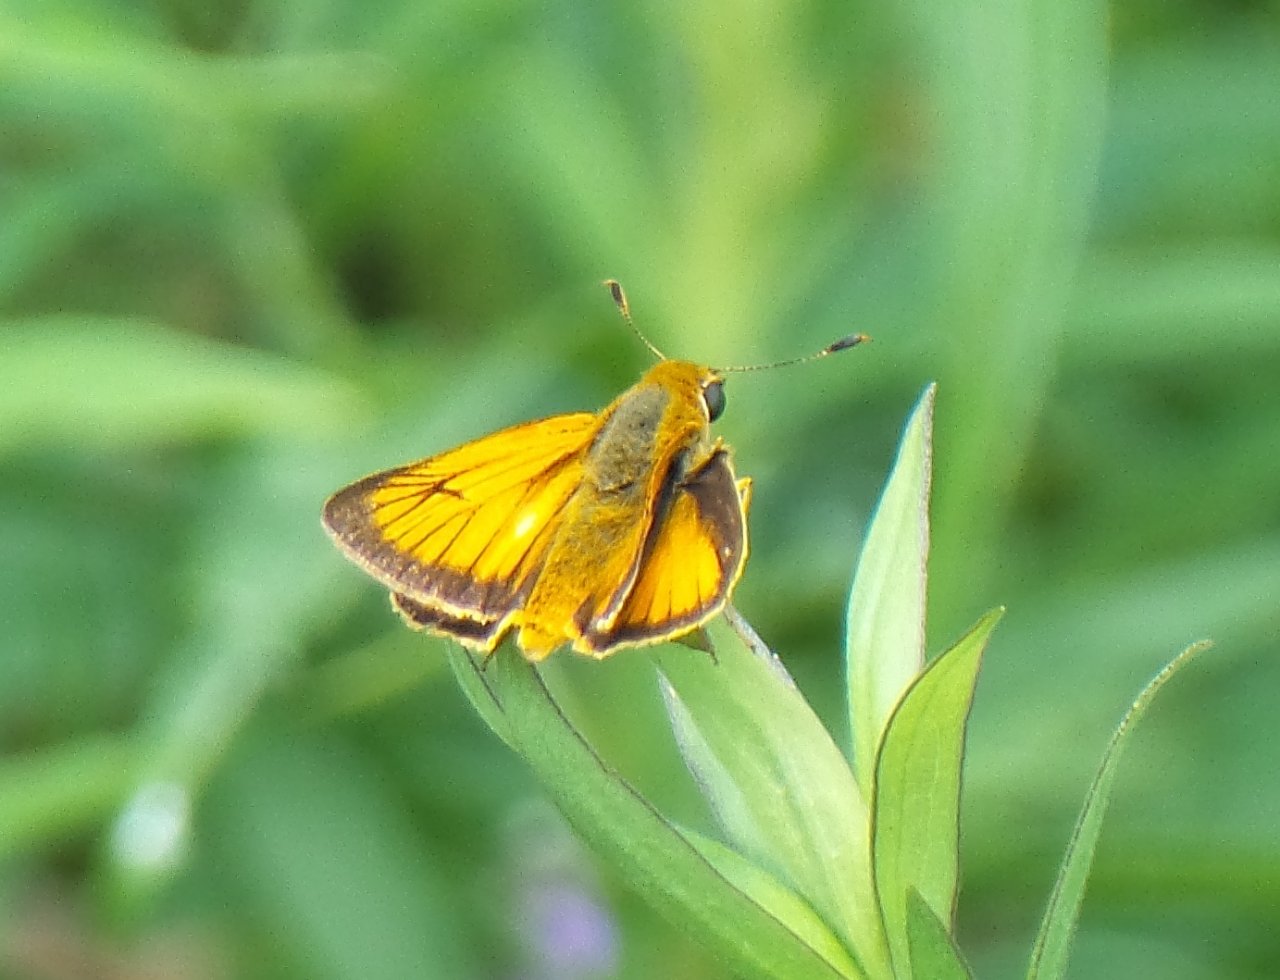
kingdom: Animalia
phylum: Arthropoda
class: Insecta
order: Lepidoptera
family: Hesperiidae
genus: Atrytone
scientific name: Atrytone delaware
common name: Delaware Skipper
